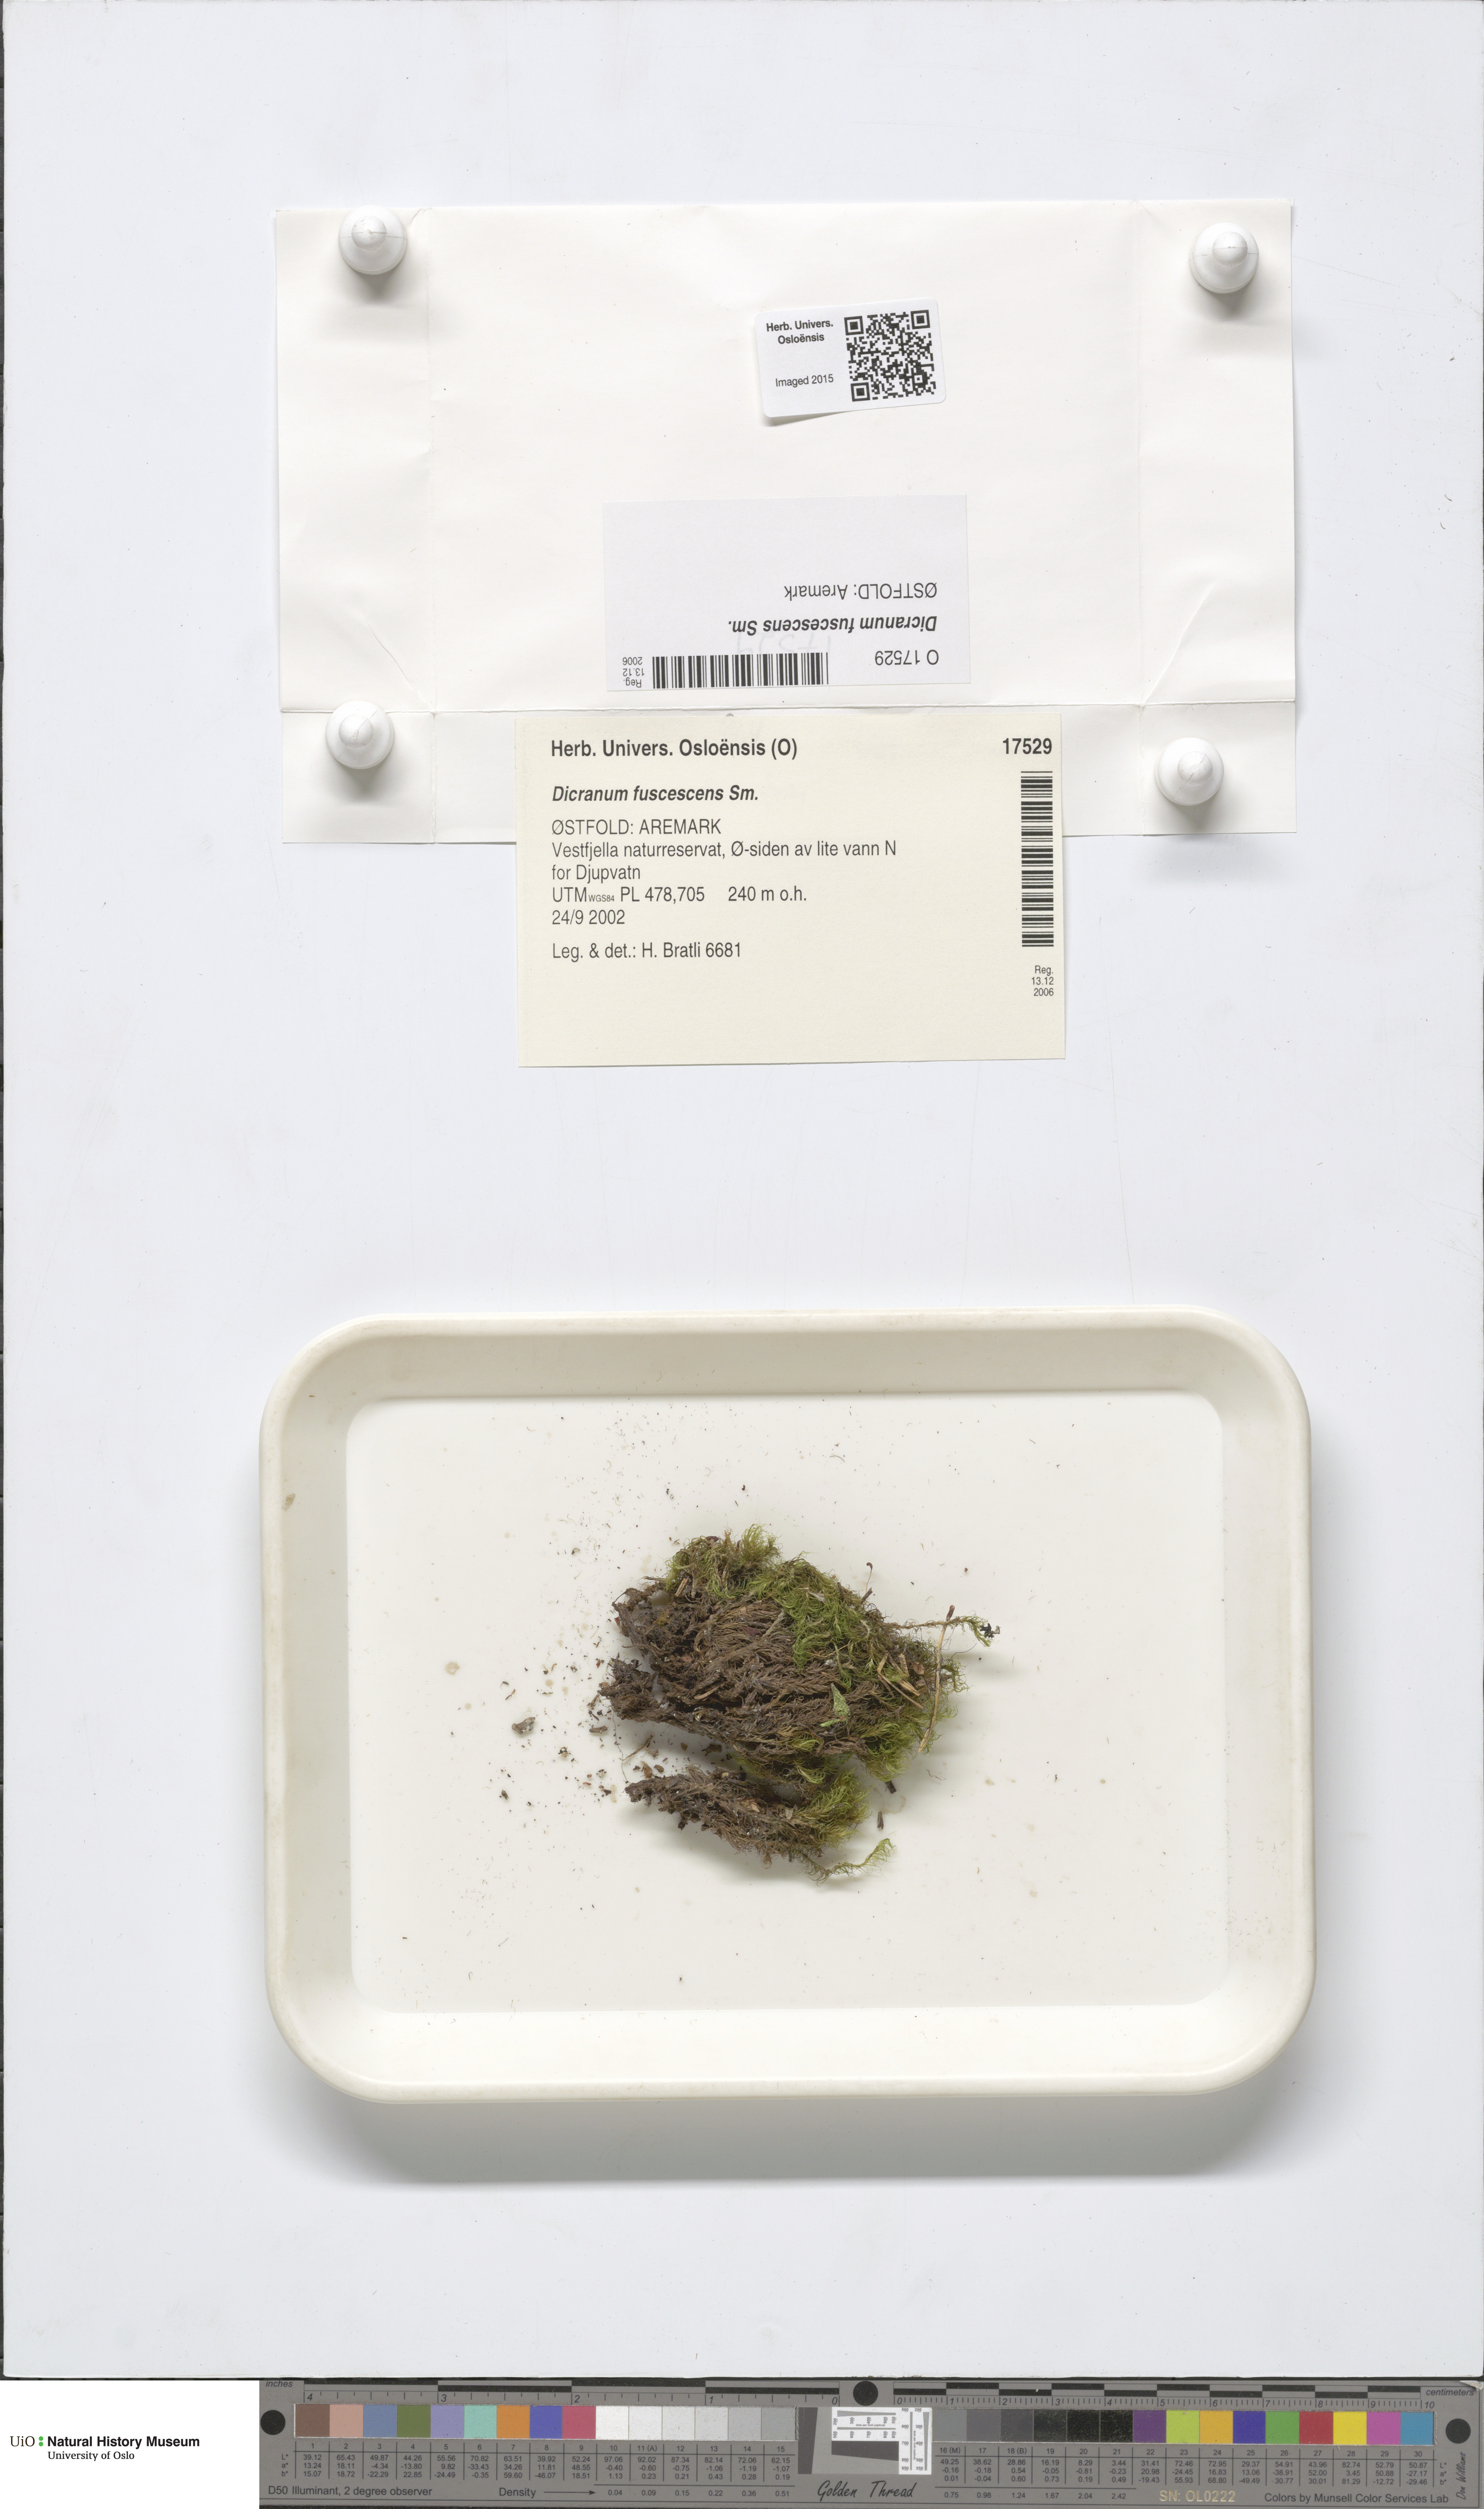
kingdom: Plantae
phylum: Bryophyta
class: Bryopsida
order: Dicranales
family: Dicranaceae
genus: Dicranum
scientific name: Dicranum fuscescens
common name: Curly heron's-bill moss
